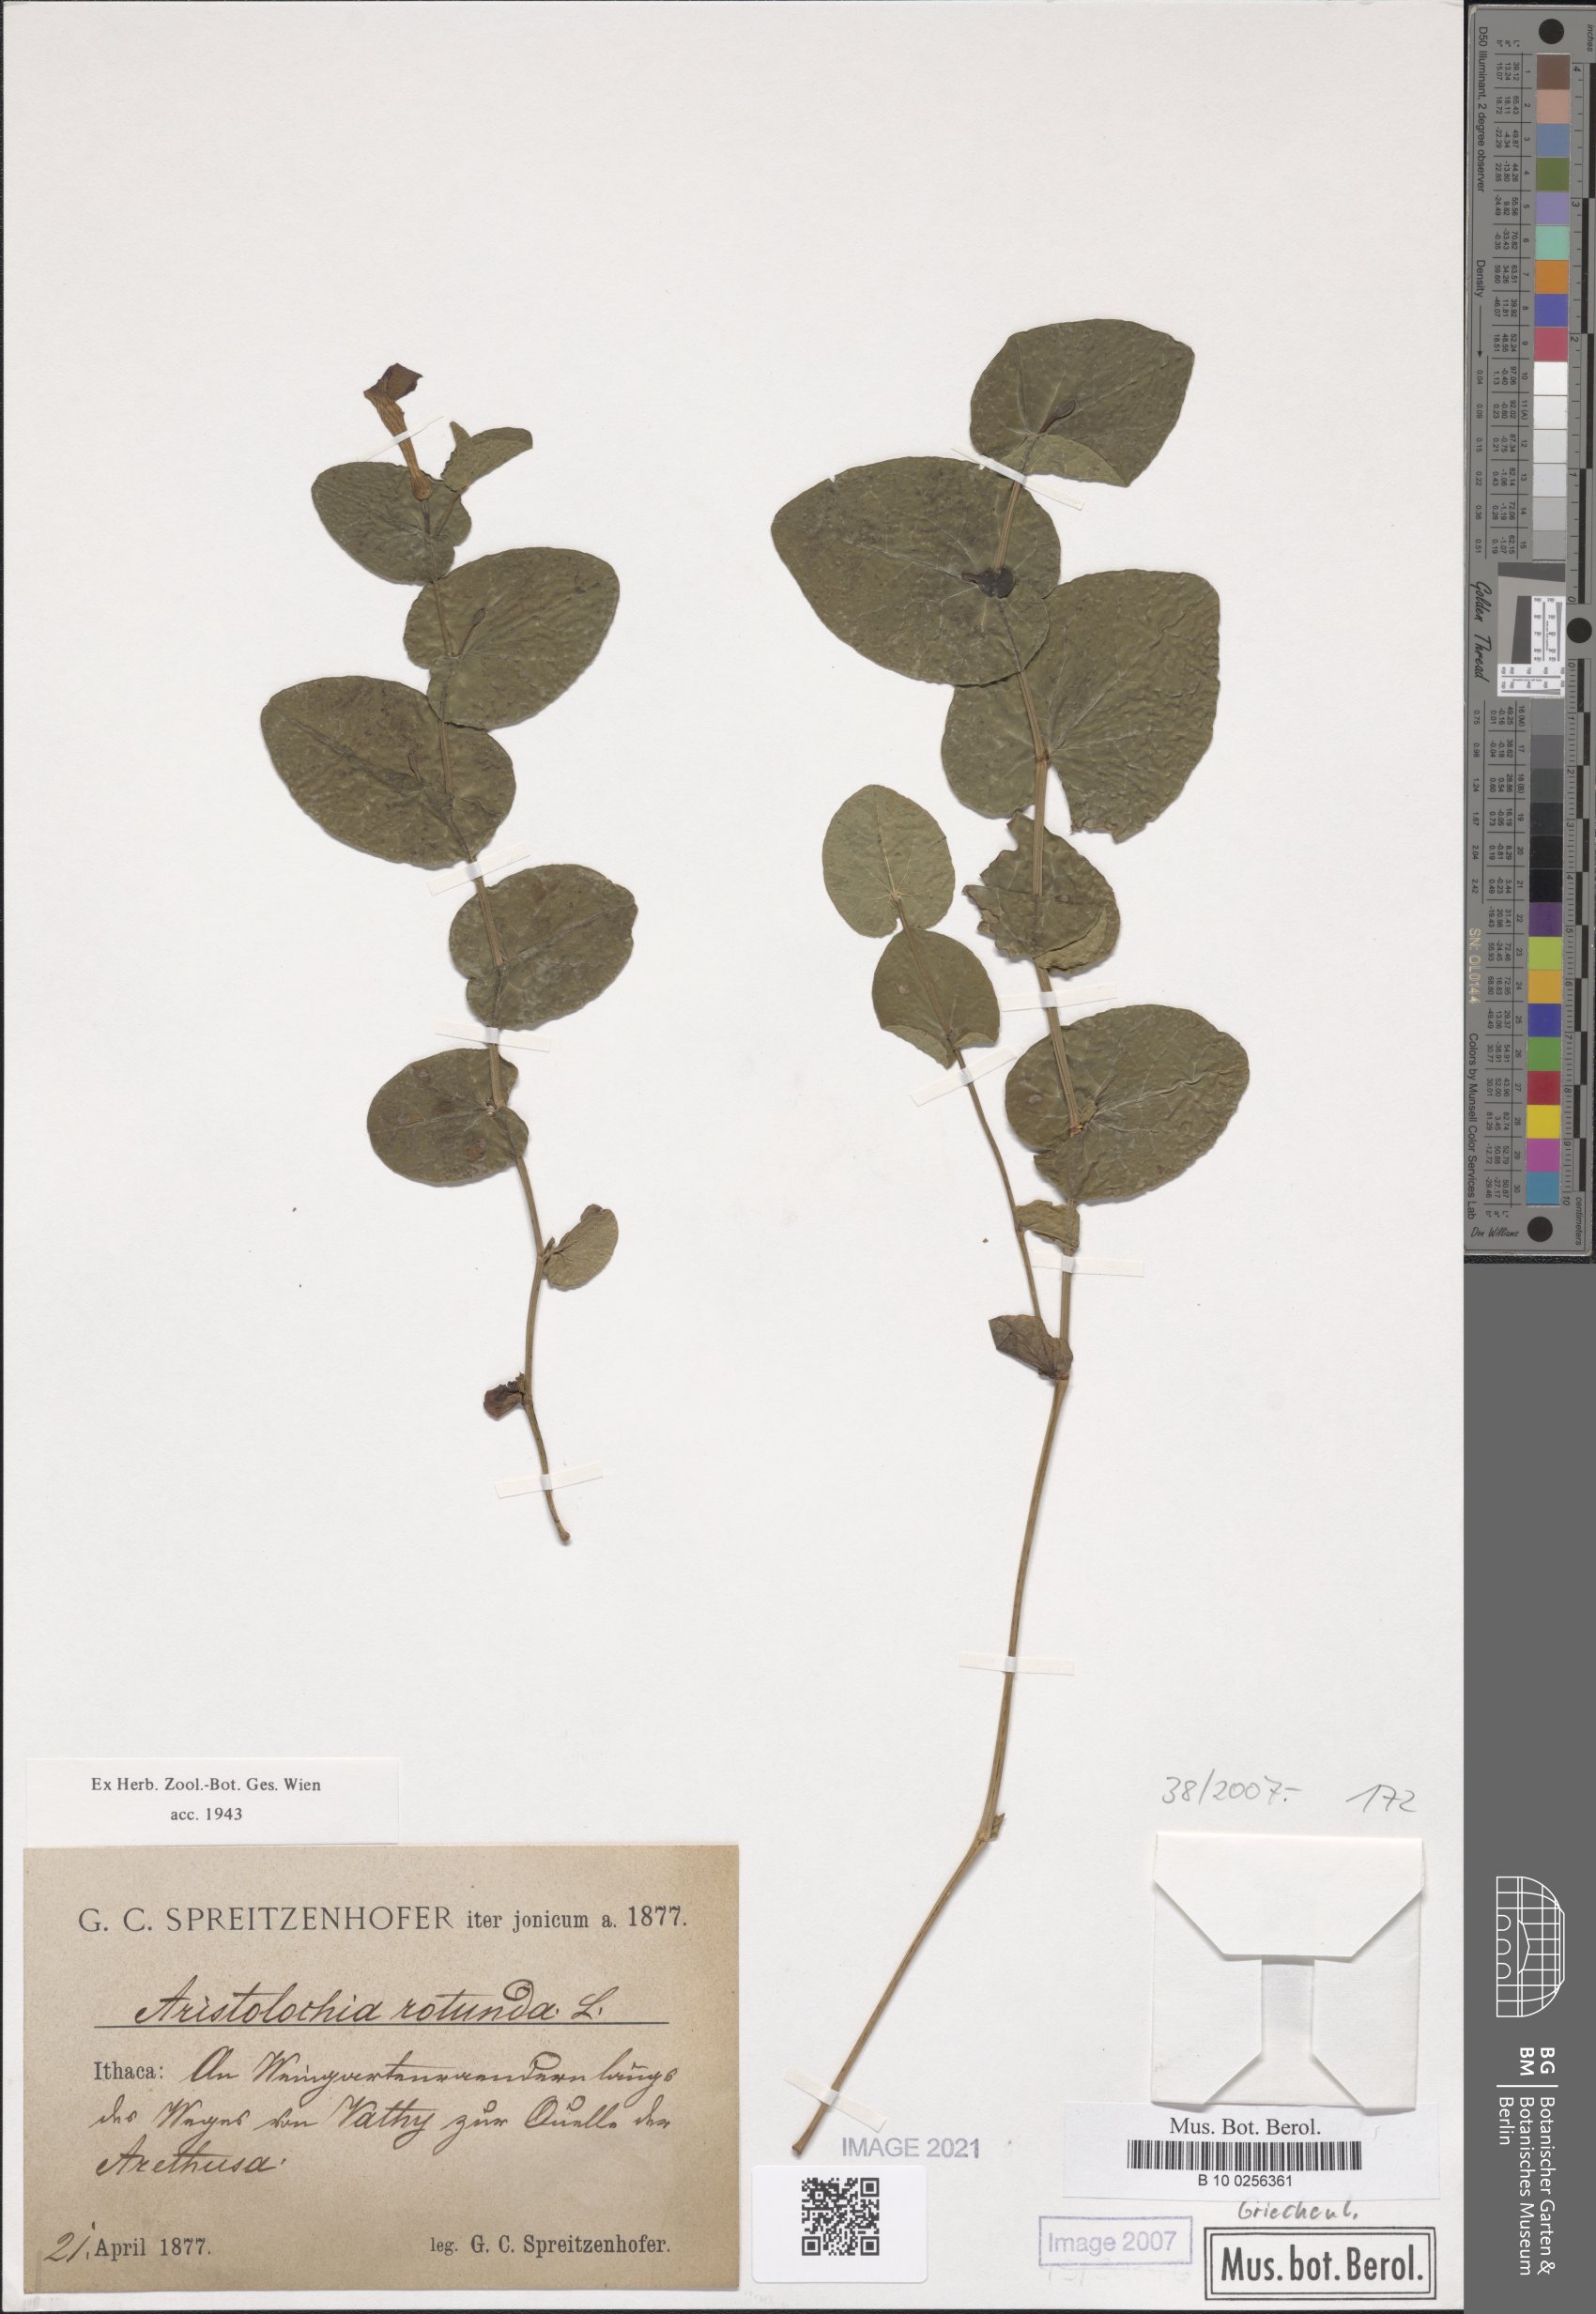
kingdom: Plantae
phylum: Tracheophyta
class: Magnoliopsida
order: Piperales
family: Aristolochiaceae
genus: Aristolochia
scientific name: Aristolochia rotunda
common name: Smearwort
